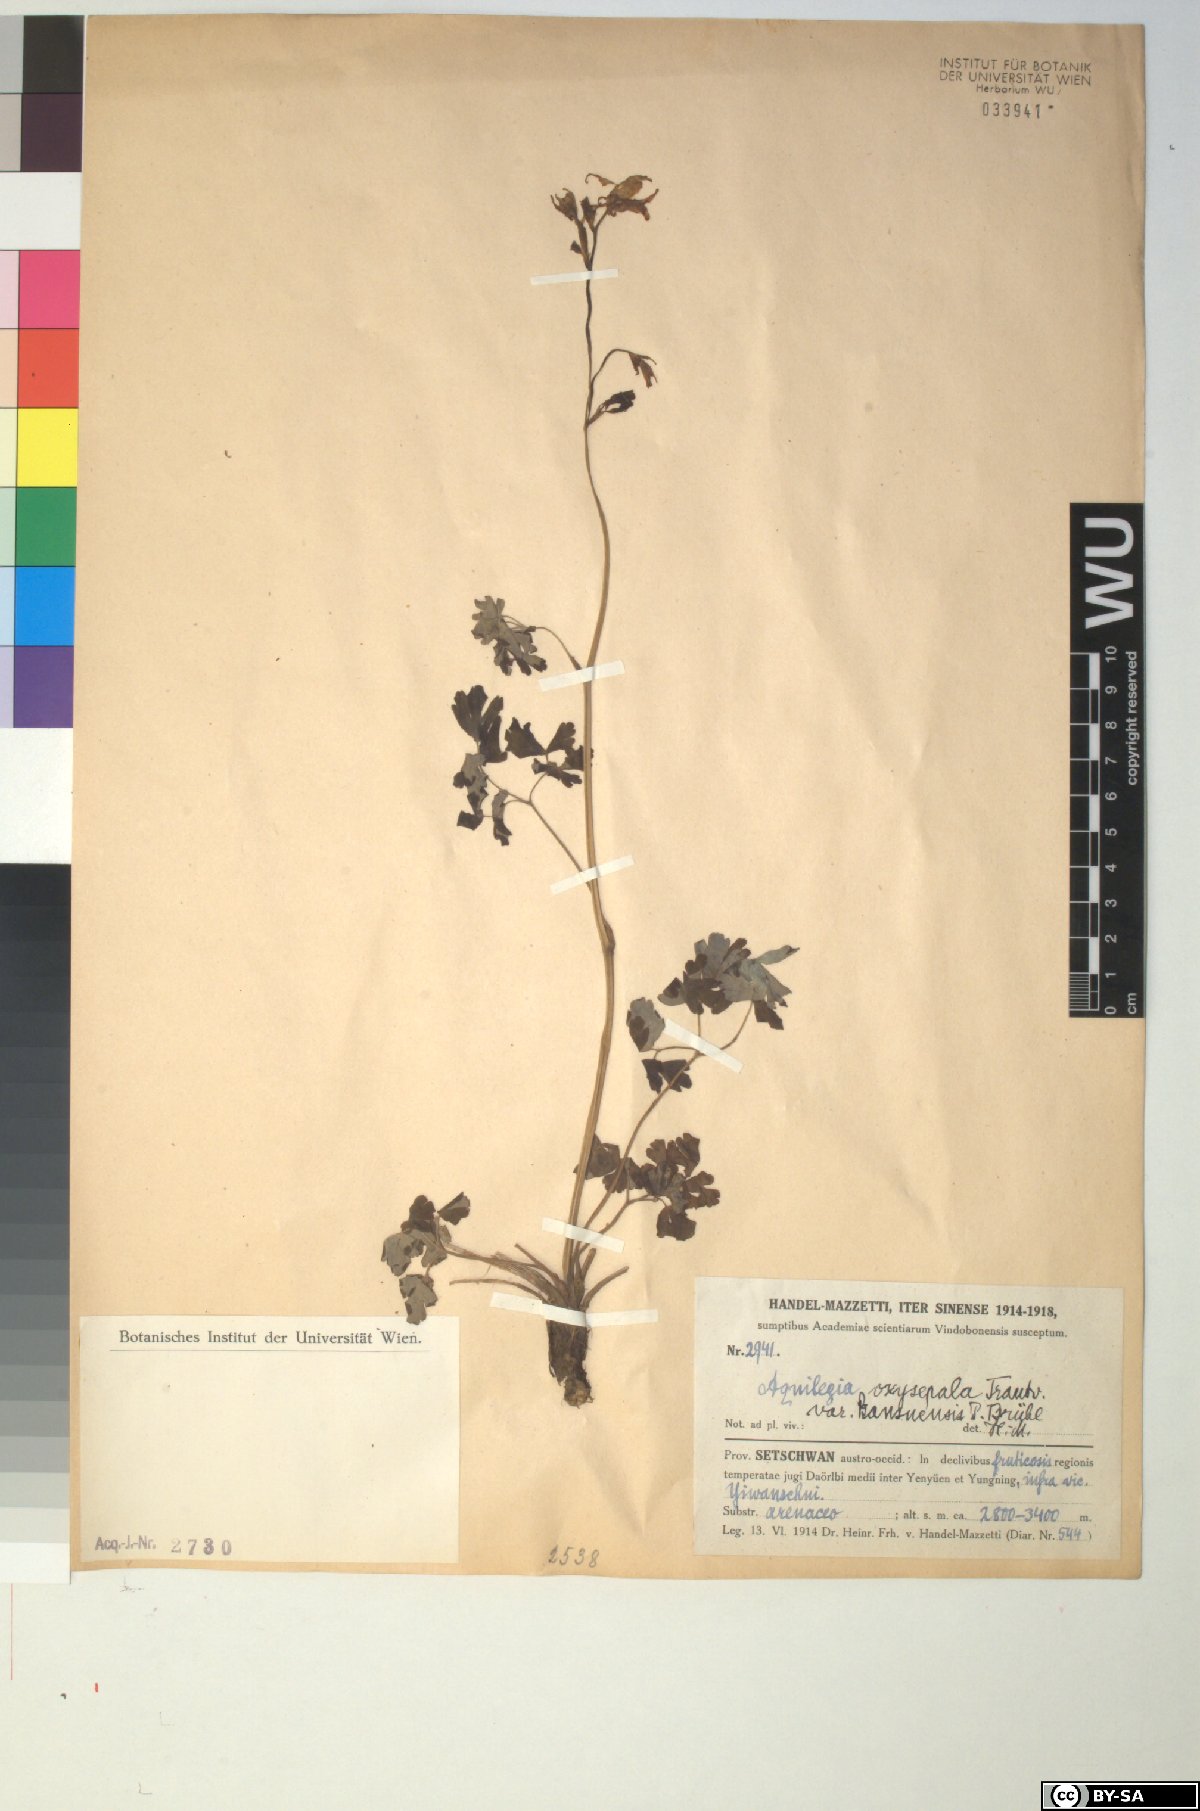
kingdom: Plantae
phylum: Tracheophyta
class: Magnoliopsida
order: Ranunculales
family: Ranunculaceae
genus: Aquilegia
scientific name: Aquilegia kansuensis
